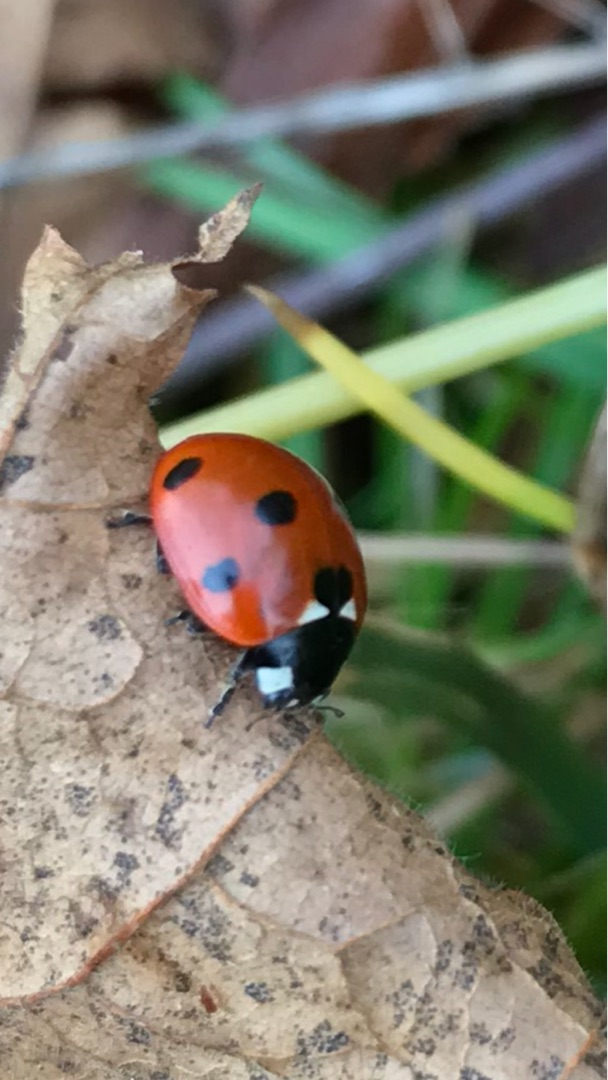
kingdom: Animalia
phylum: Arthropoda
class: Insecta
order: Coleoptera
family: Coccinellidae
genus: Coccinella
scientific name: Coccinella septempunctata
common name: Syvplettet mariehøne
